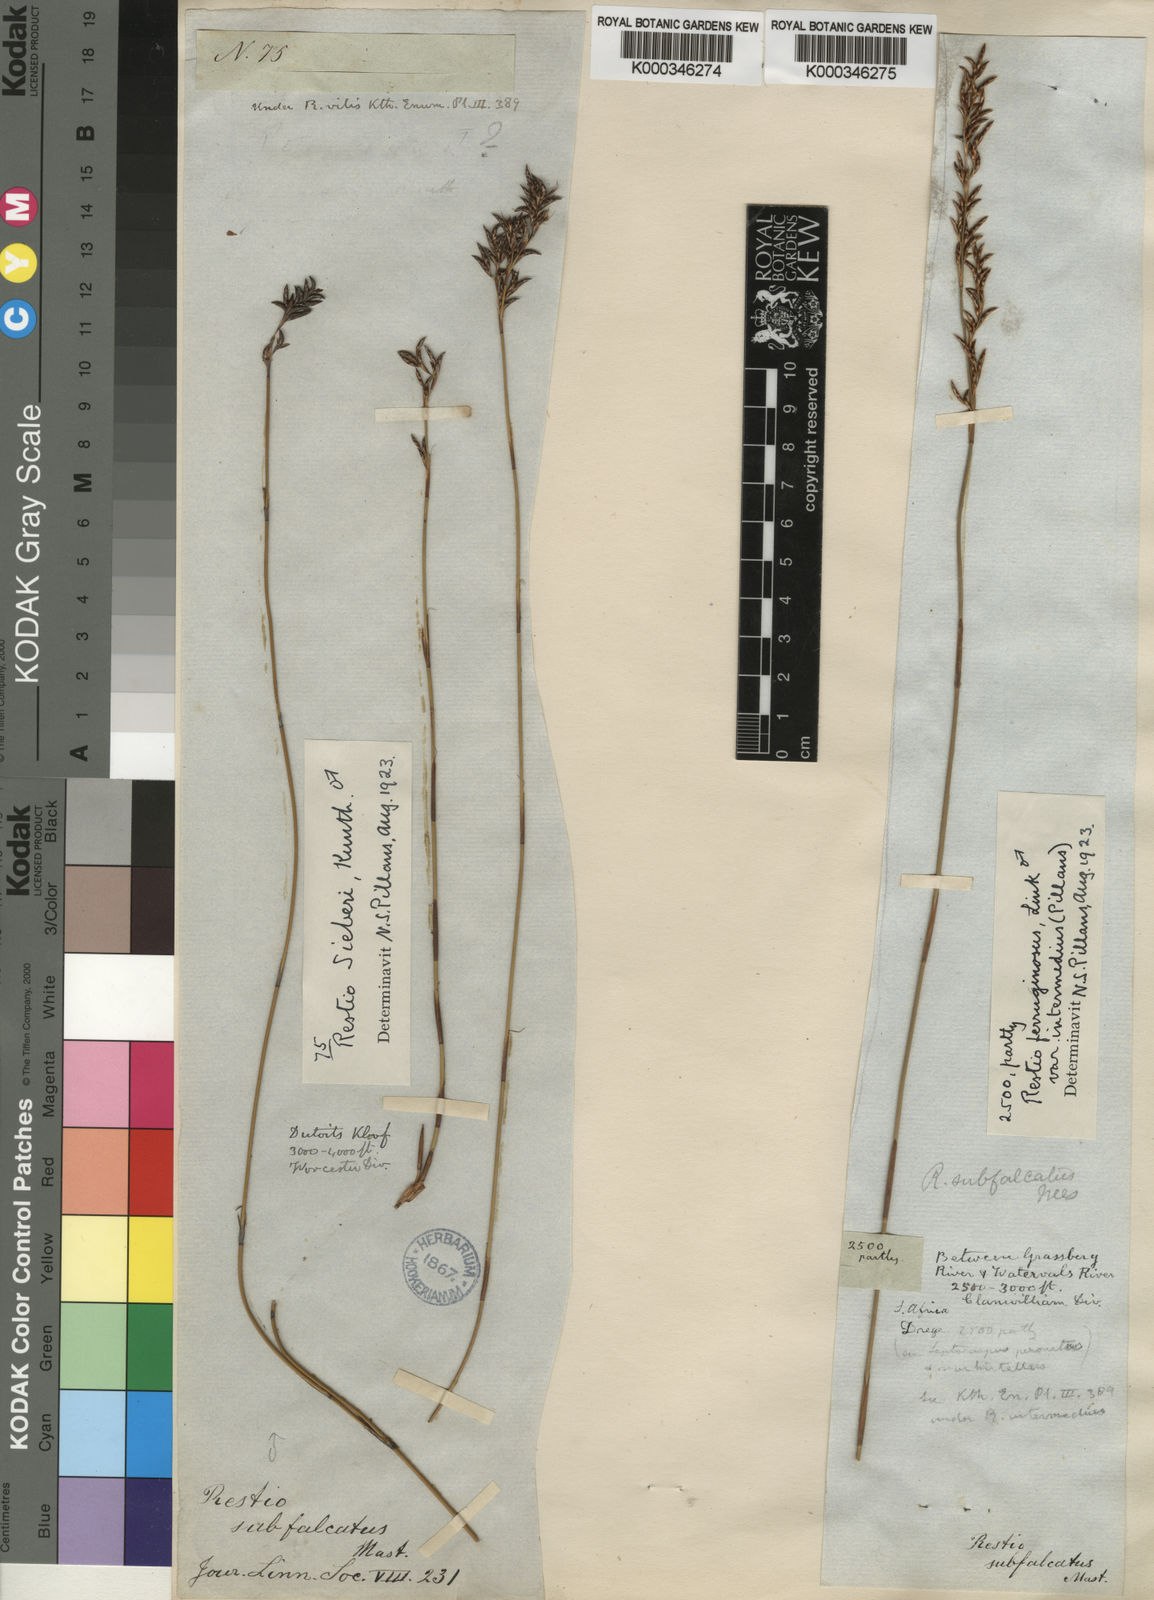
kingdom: Plantae
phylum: Tracheophyta
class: Liliopsida
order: Poales
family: Restionaceae
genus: Restio
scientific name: Restio sieberi
